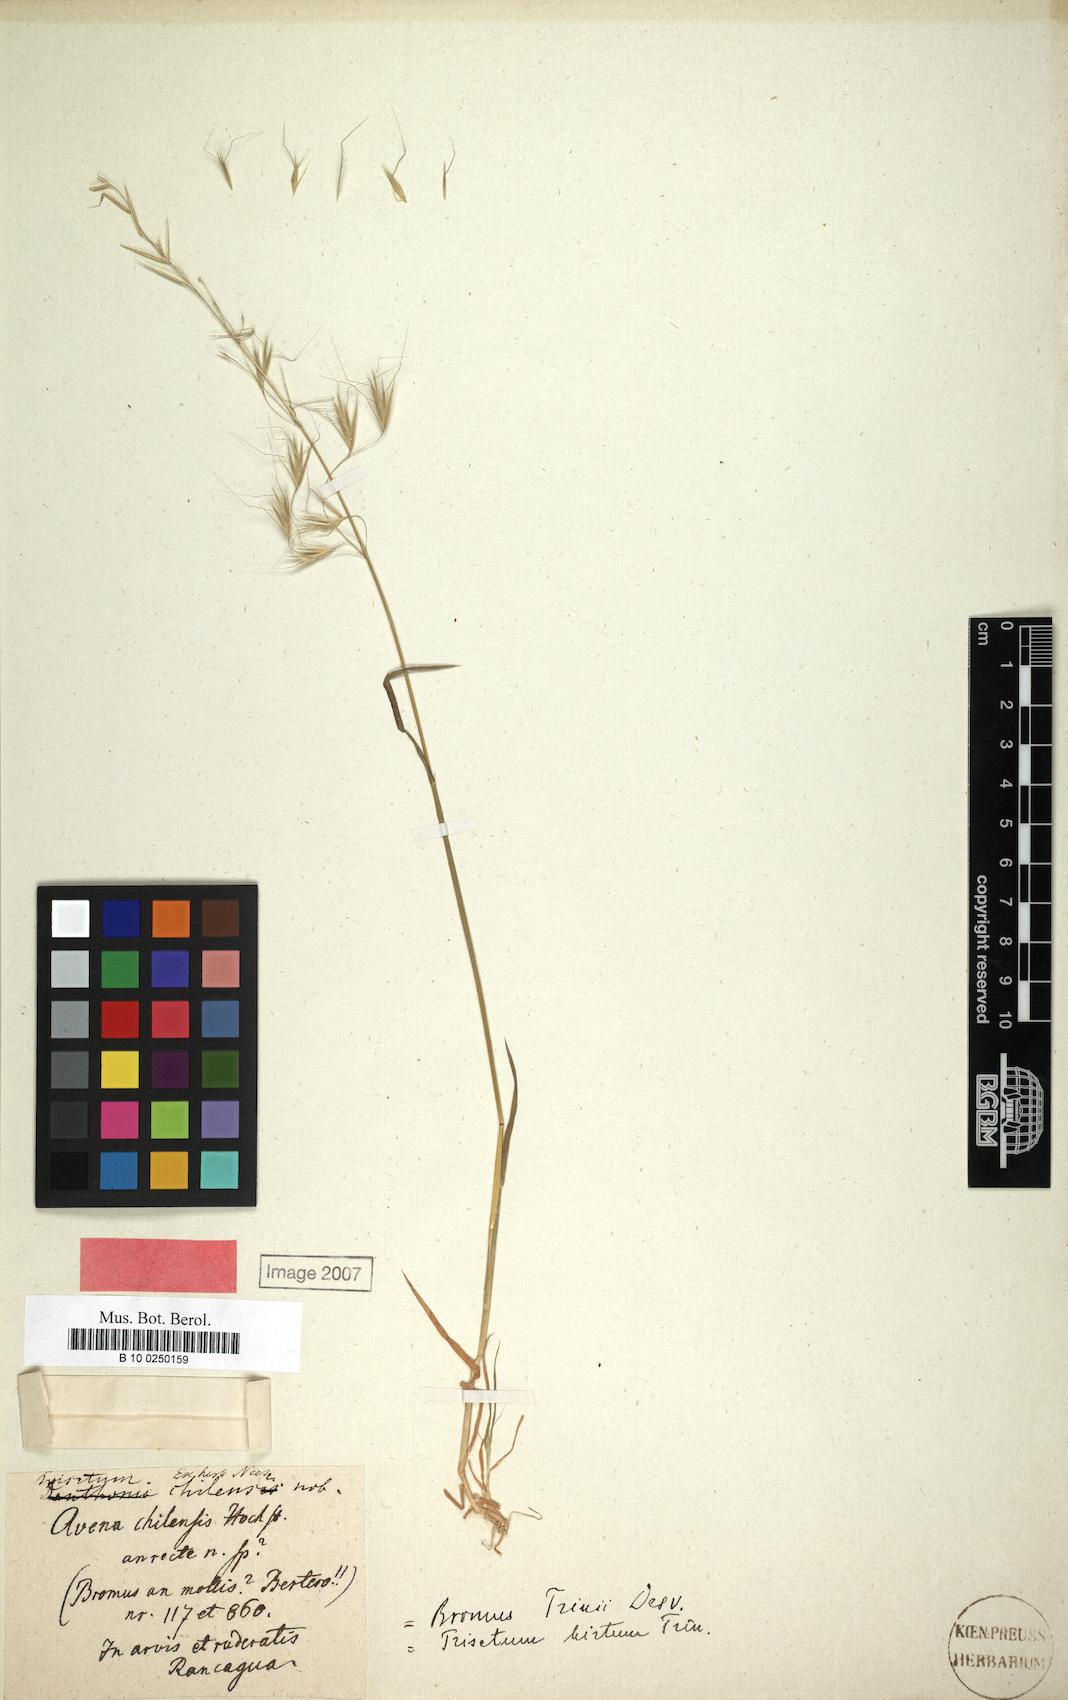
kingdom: Plantae
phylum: Tracheophyta
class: Liliopsida
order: Poales
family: Poaceae
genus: Trisetum
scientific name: Trisetum caudulatum
